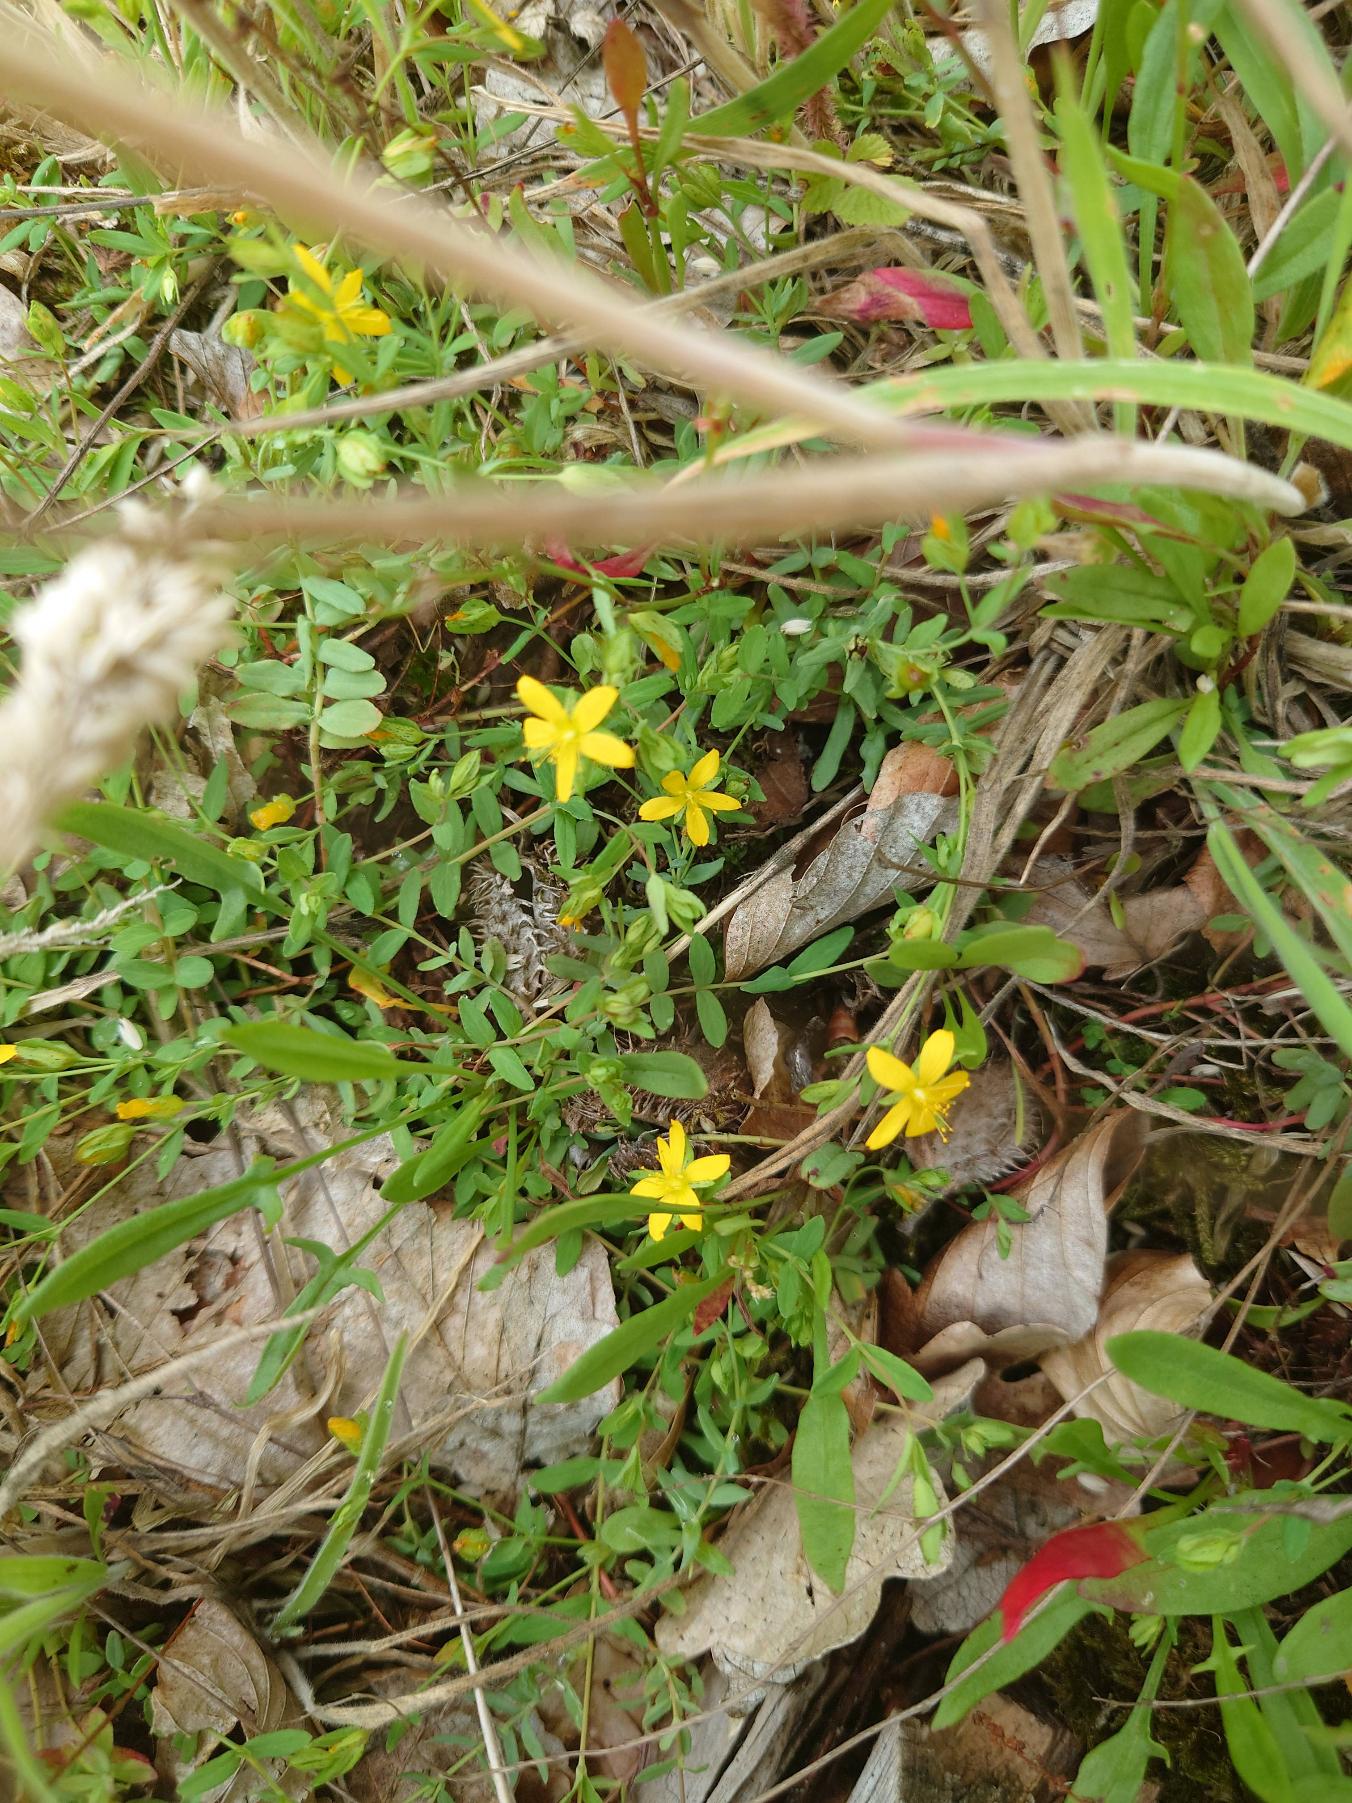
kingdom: Plantae
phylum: Tracheophyta
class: Magnoliopsida
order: Malpighiales
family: Hypericaceae
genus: Hypericum
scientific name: Hypericum humifusum
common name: Dværg-perikon
